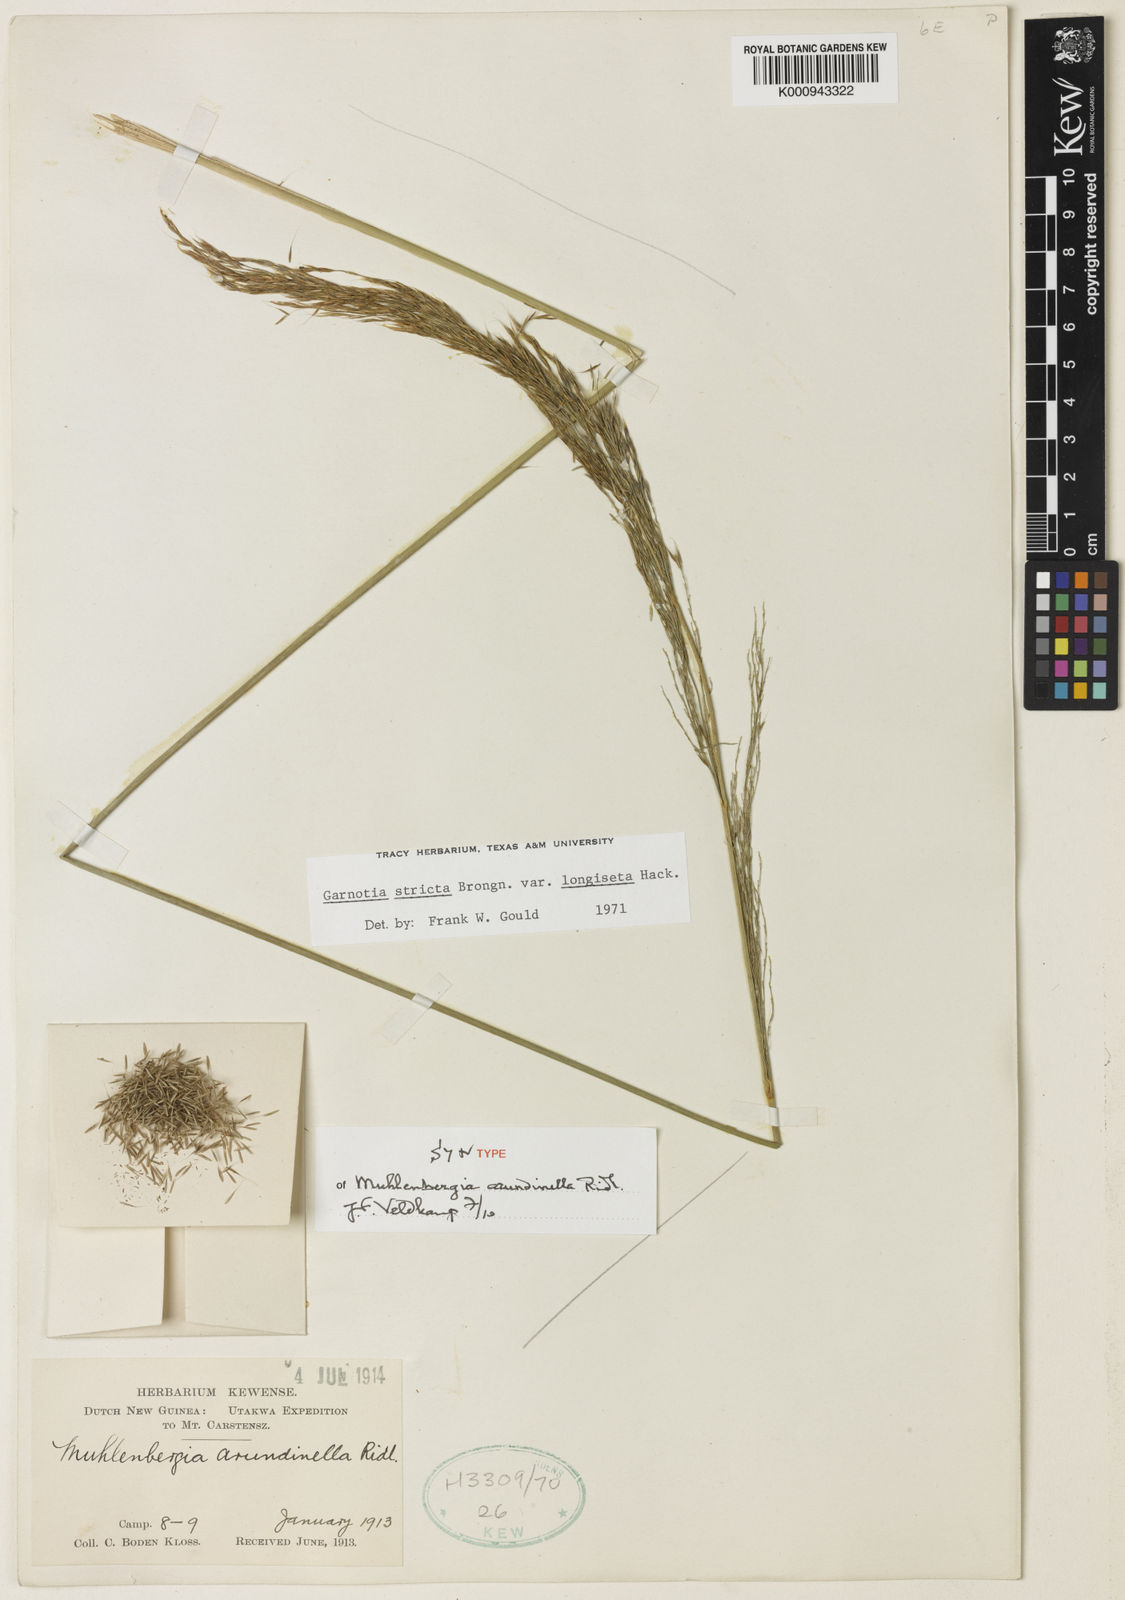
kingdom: Plantae
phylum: Tracheophyta
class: Liliopsida
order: Poales
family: Poaceae
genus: Garnotia
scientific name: Garnotia stricta
